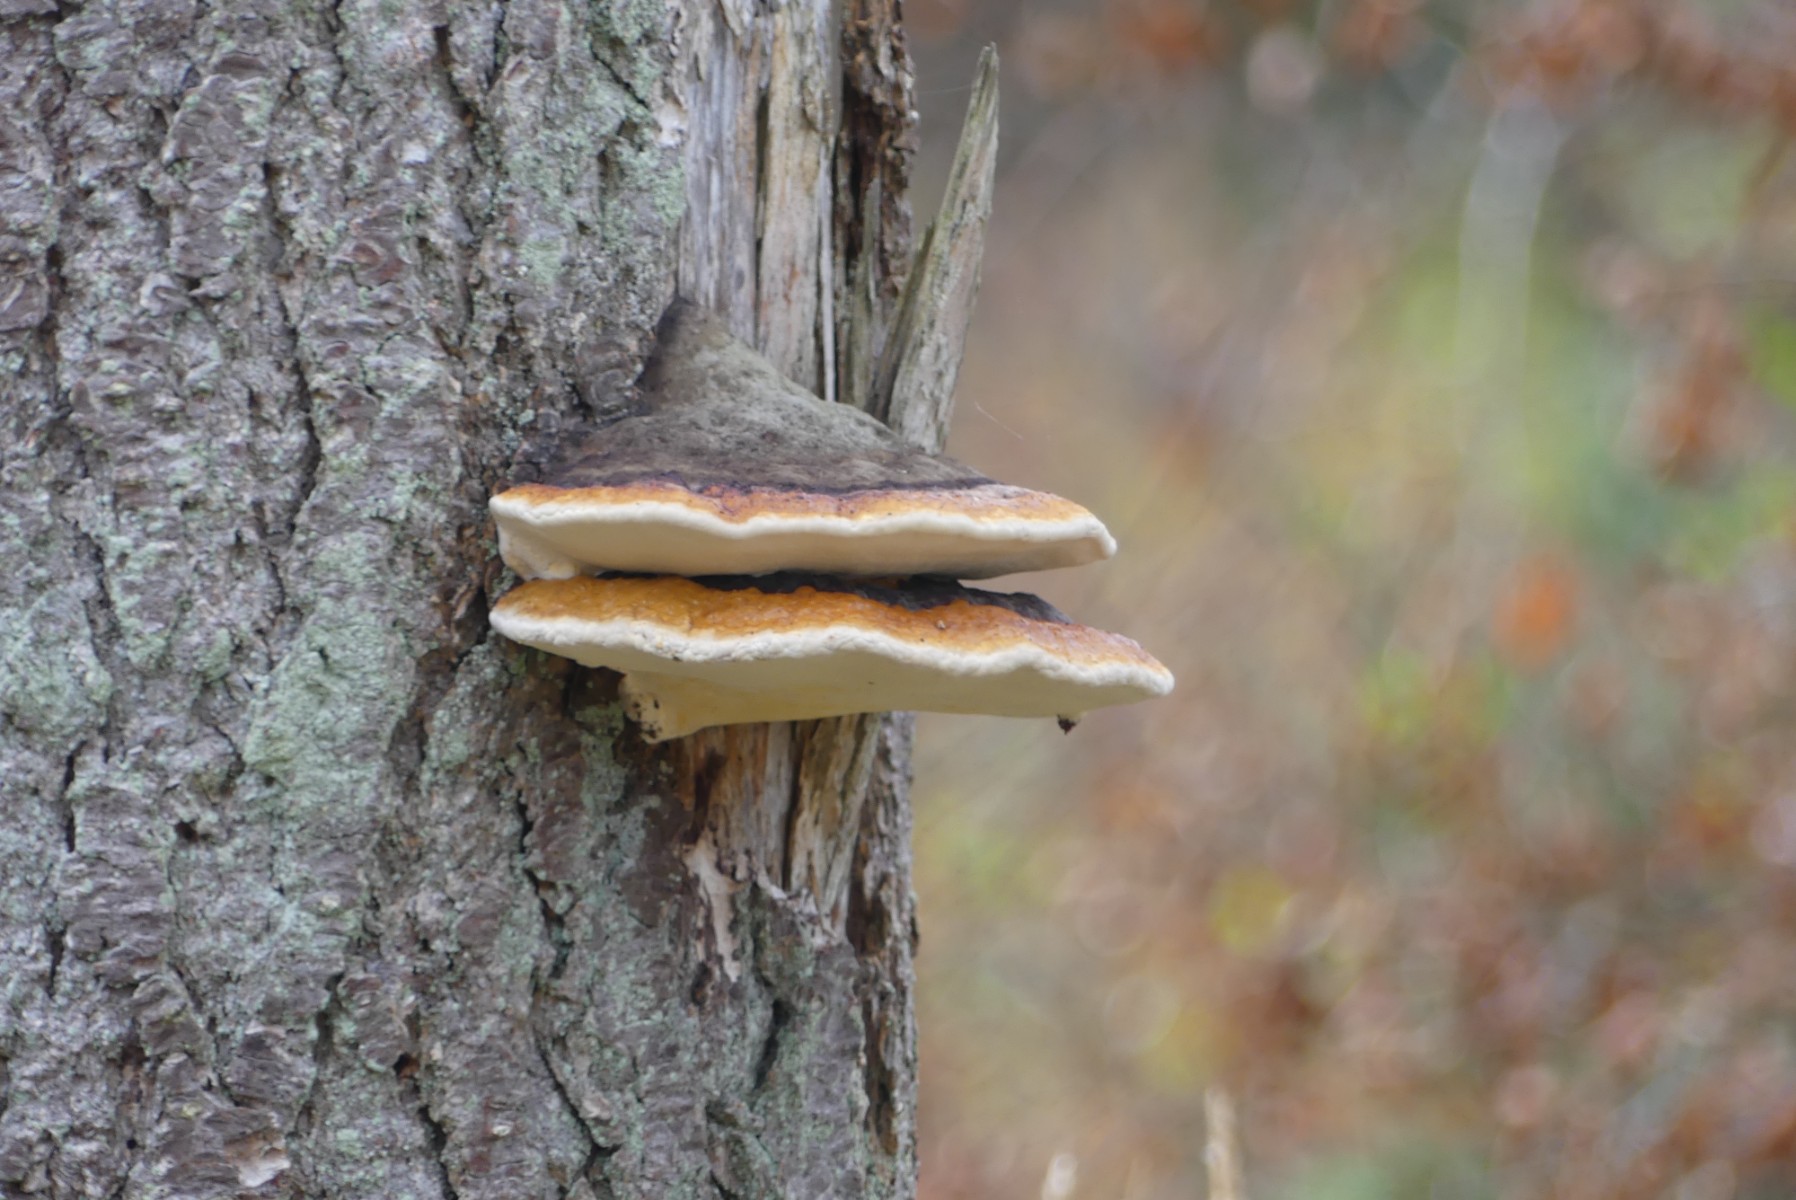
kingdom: Fungi
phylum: Basidiomycota
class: Agaricomycetes
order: Polyporales
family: Fomitopsidaceae
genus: Fomitopsis
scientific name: Fomitopsis pinicola
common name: randbæltet hovporesvamp
